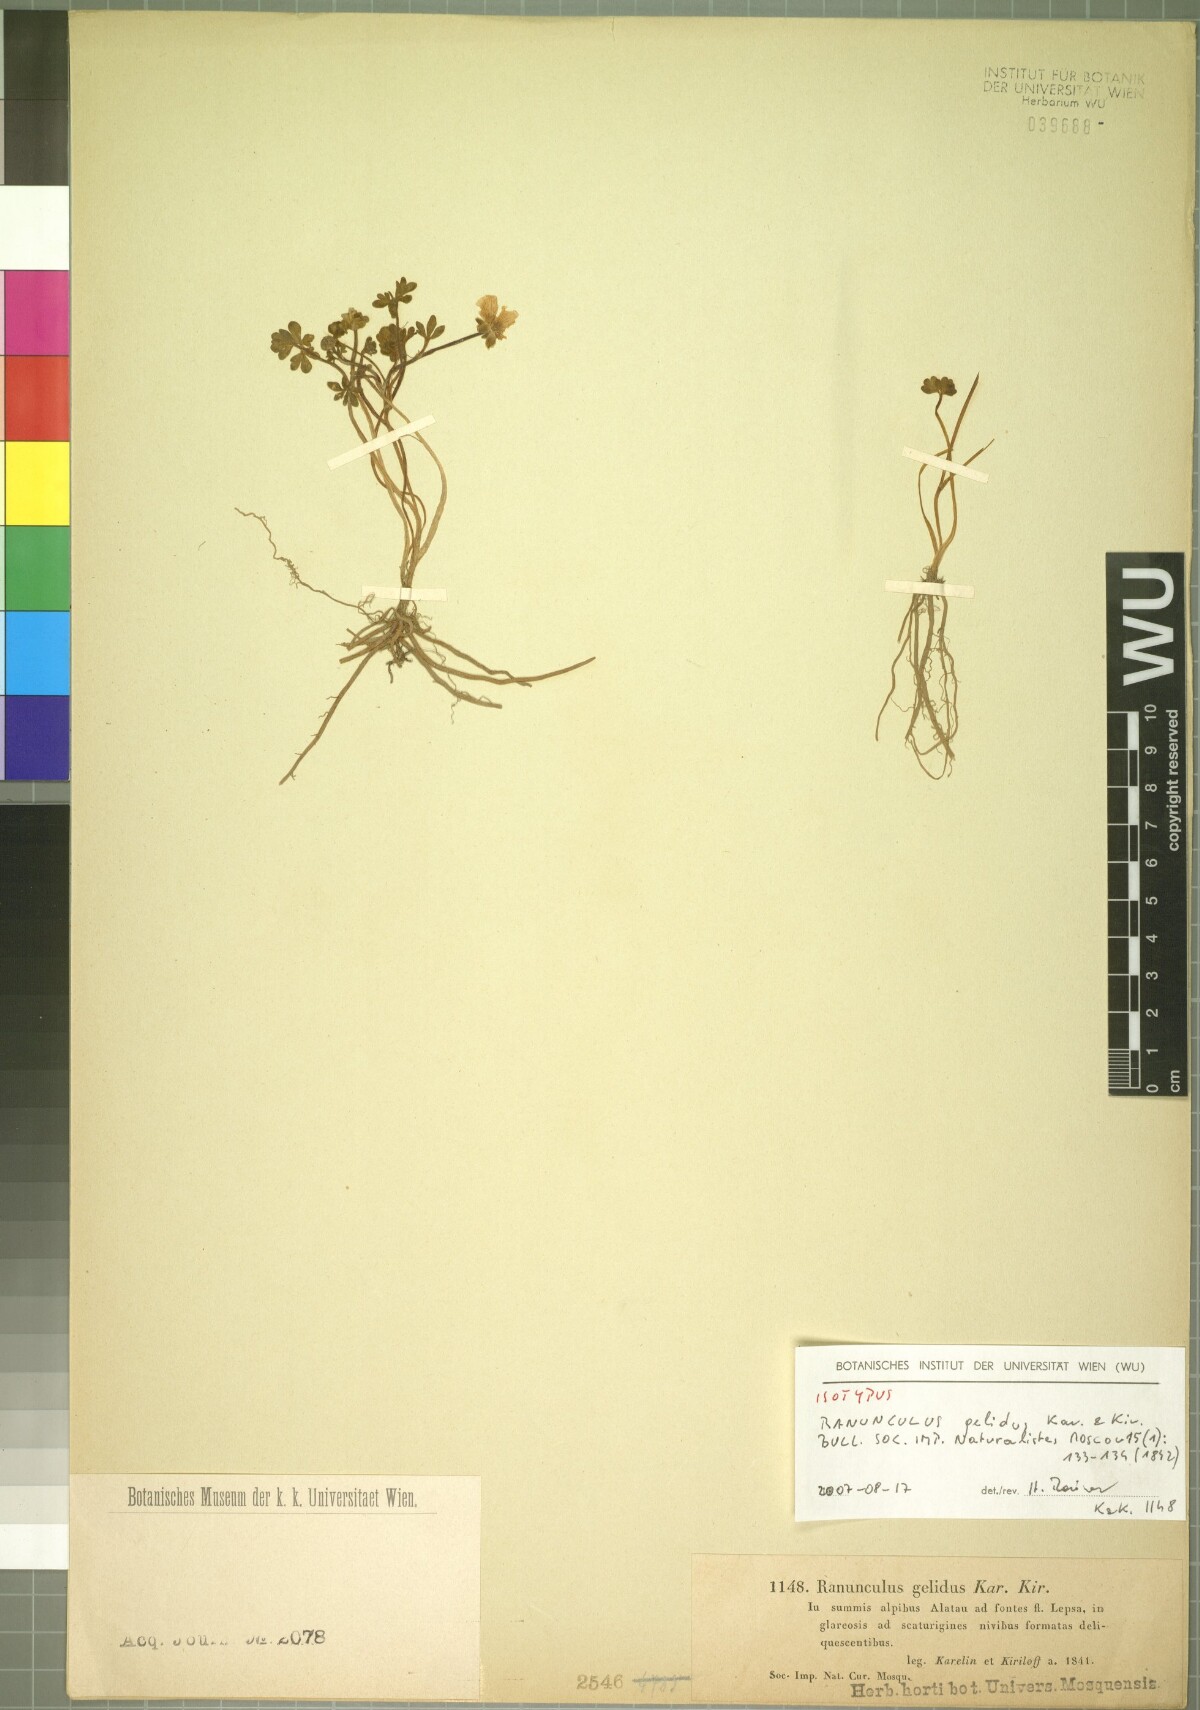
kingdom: Plantae
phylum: Tracheophyta
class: Magnoliopsida
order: Ranunculales
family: Ranunculaceae
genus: Ranunculus
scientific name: Ranunculus karelinii
